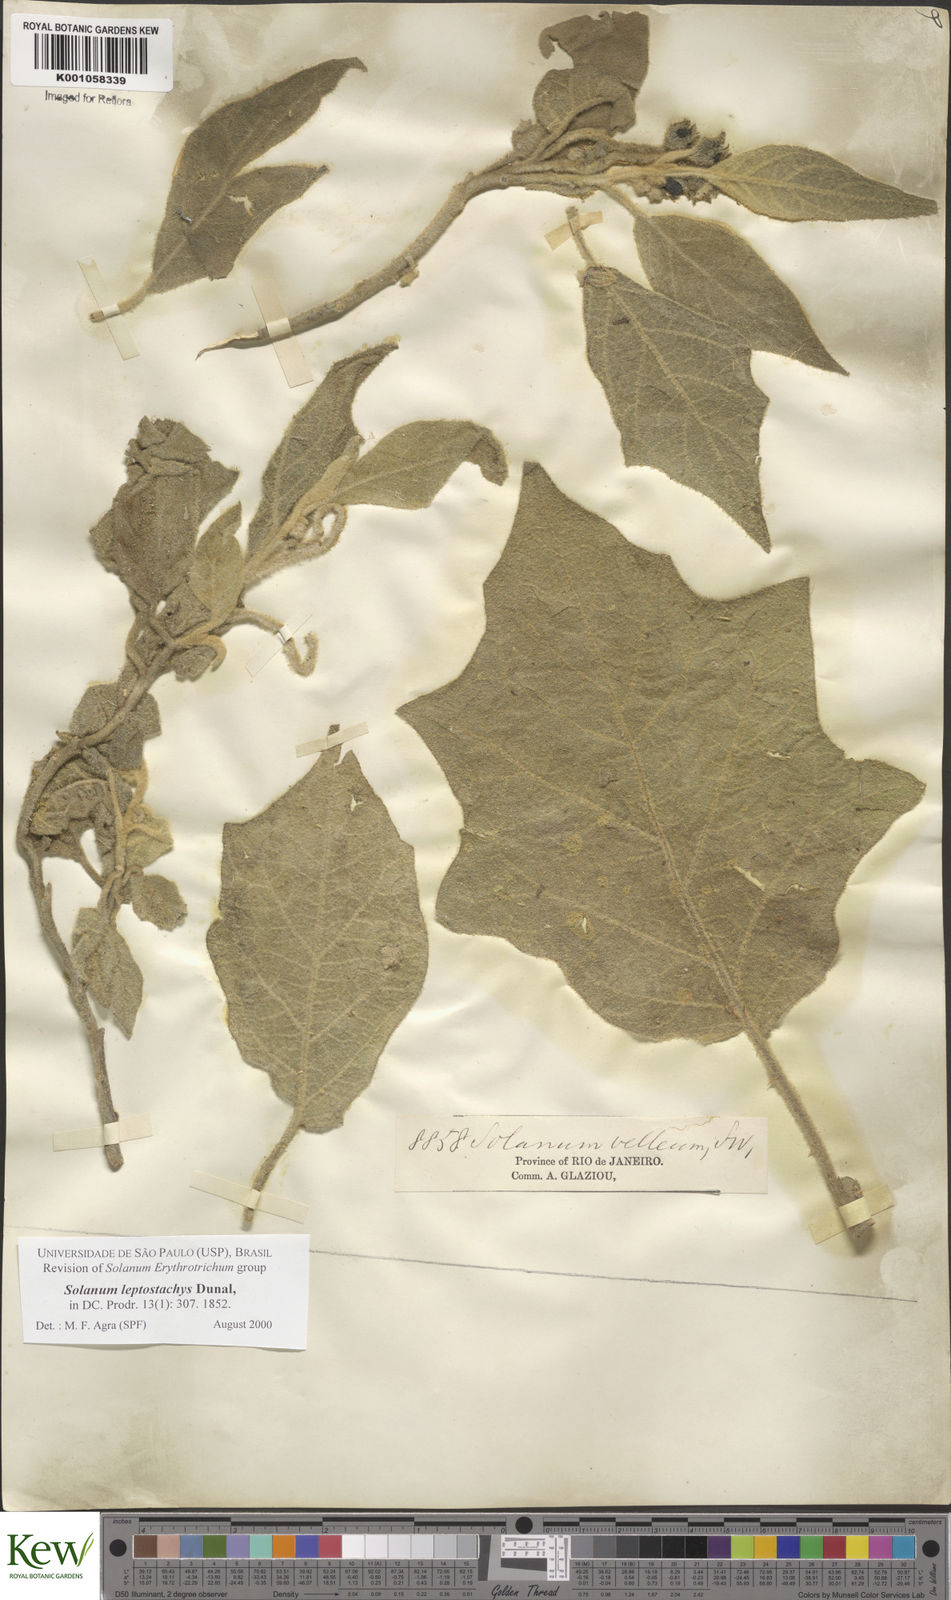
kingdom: Plantae
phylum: Tracheophyta
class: Magnoliopsida
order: Solanales
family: Solanaceae
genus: Solanum
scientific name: Solanum leptostachys
